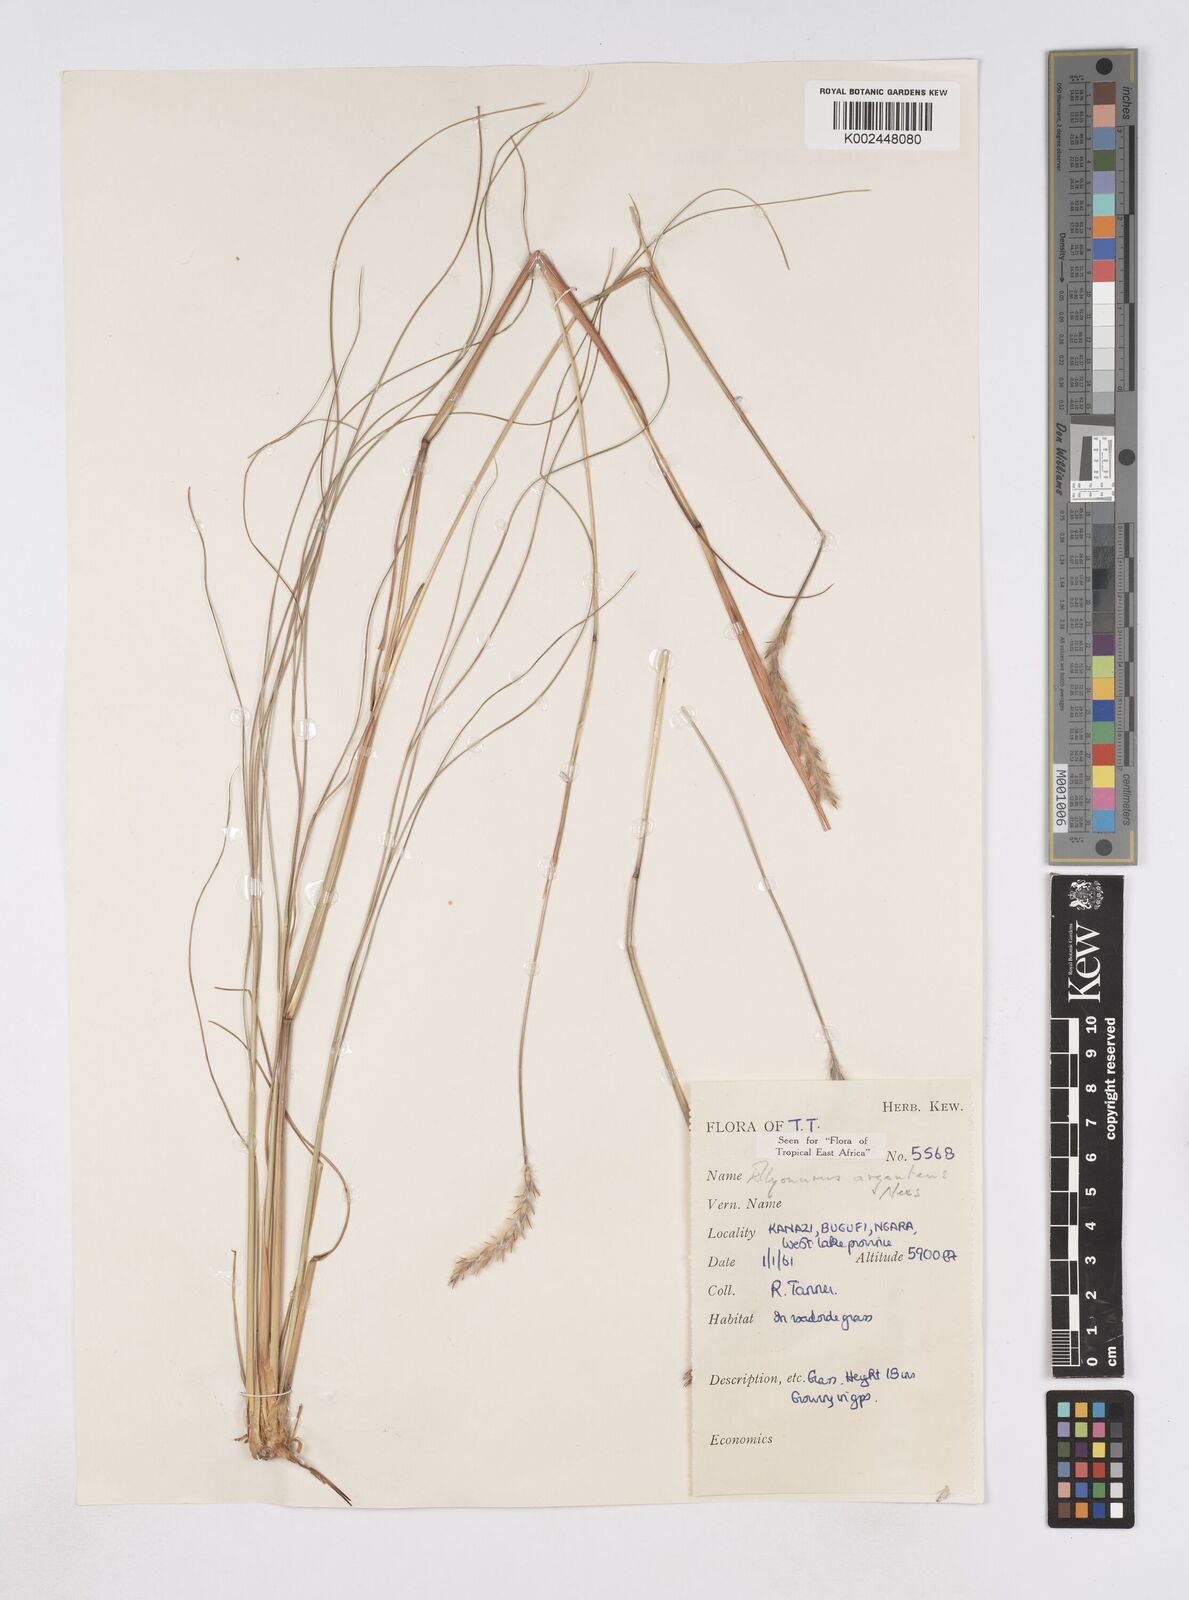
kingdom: Plantae
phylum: Tracheophyta
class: Liliopsida
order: Poales
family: Poaceae
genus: Elionurus
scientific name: Elionurus muticus
